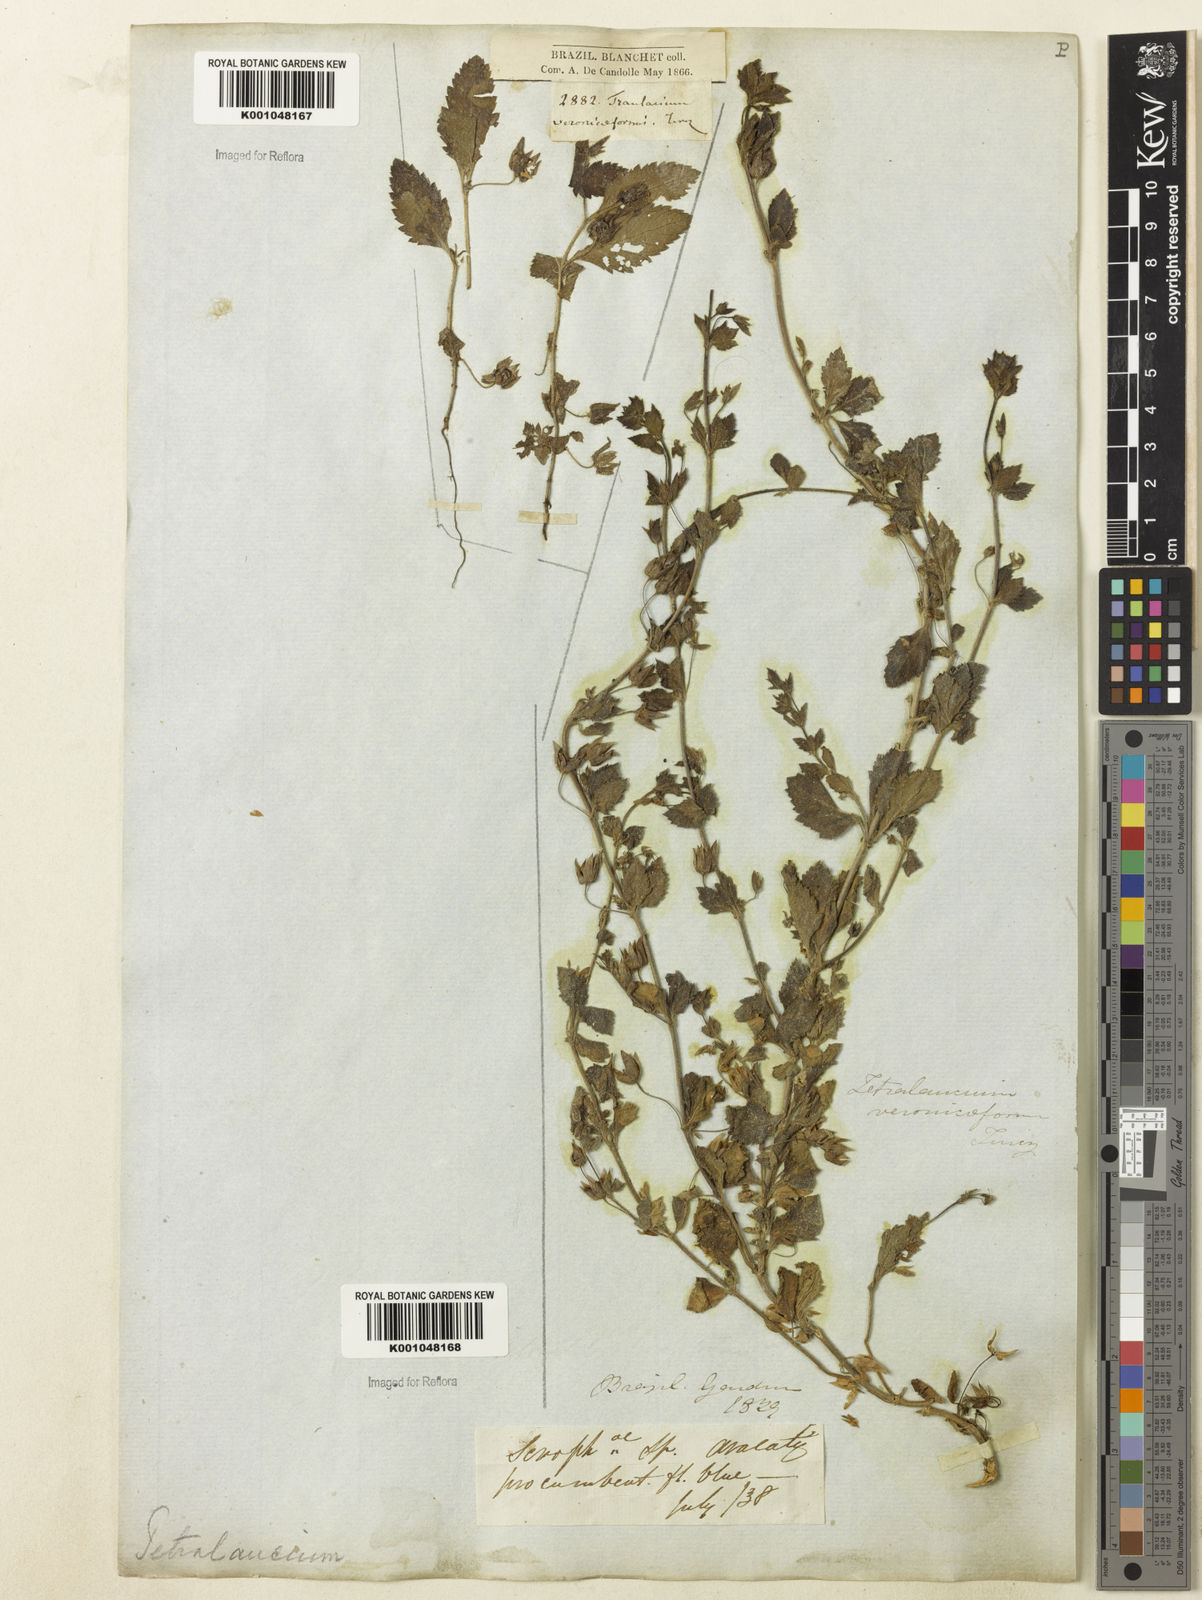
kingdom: Plantae
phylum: Tracheophyta
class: Magnoliopsida
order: Lamiales
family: Plantaginaceae
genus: Tetraulacium
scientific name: Tetraulacium veroniciforme
